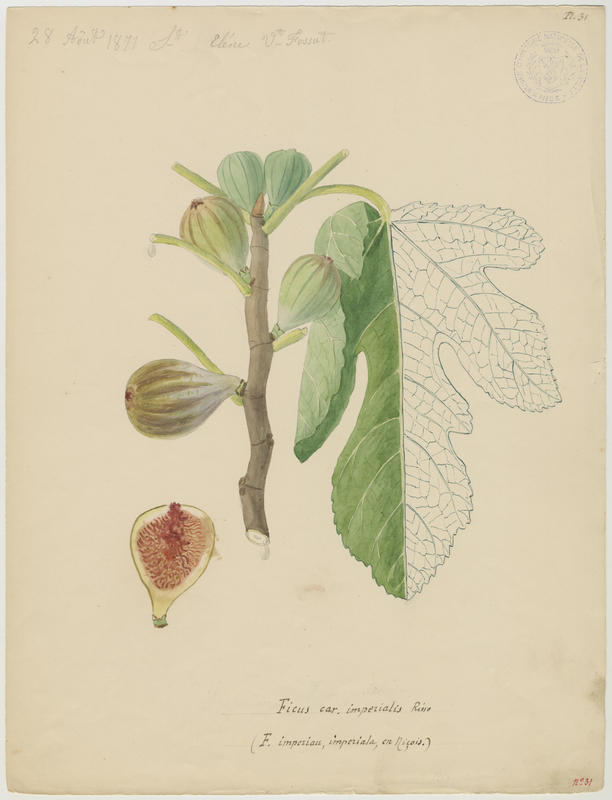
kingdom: Plantae
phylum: Tracheophyta
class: Magnoliopsida
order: Rosales
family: Moraceae
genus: Ficus
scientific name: Ficus carica
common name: Fig
